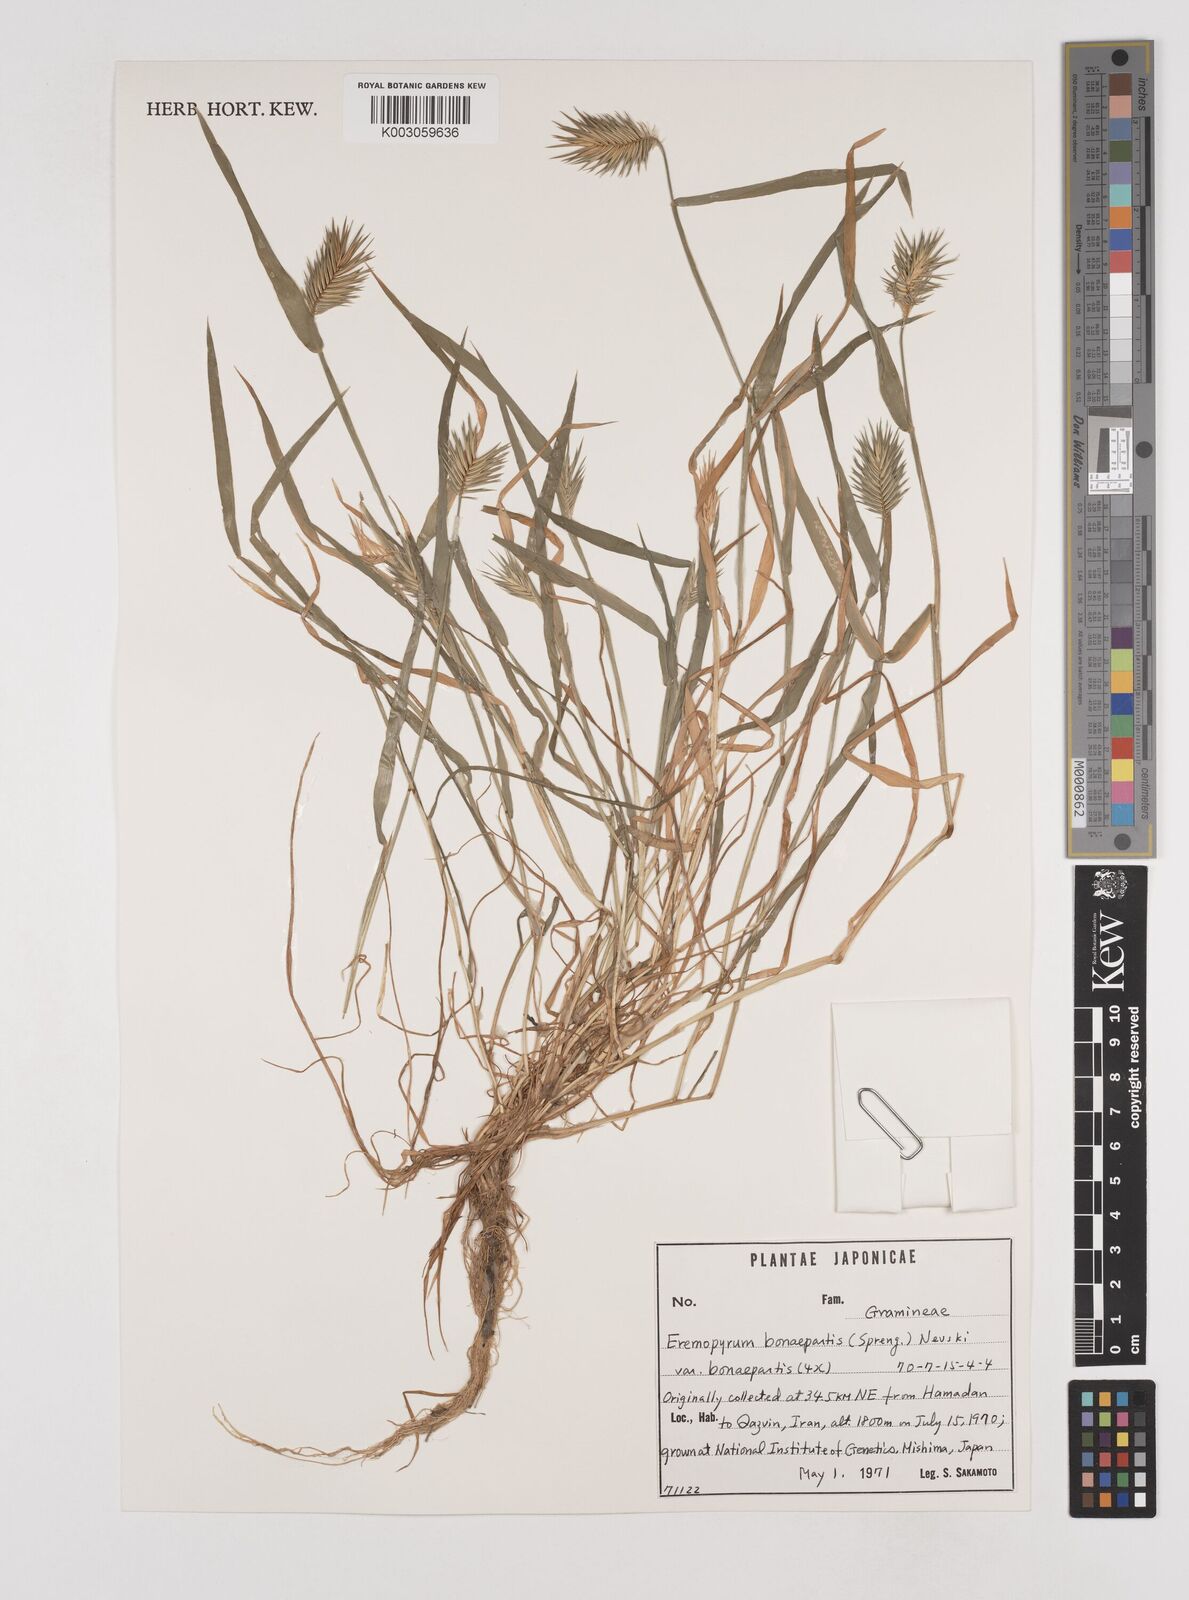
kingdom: Plantae
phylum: Tracheophyta
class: Liliopsida
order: Poales
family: Poaceae
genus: Eremopyrum
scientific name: Eremopyrum bonaepartis
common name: Tapertip false wheatgrass
